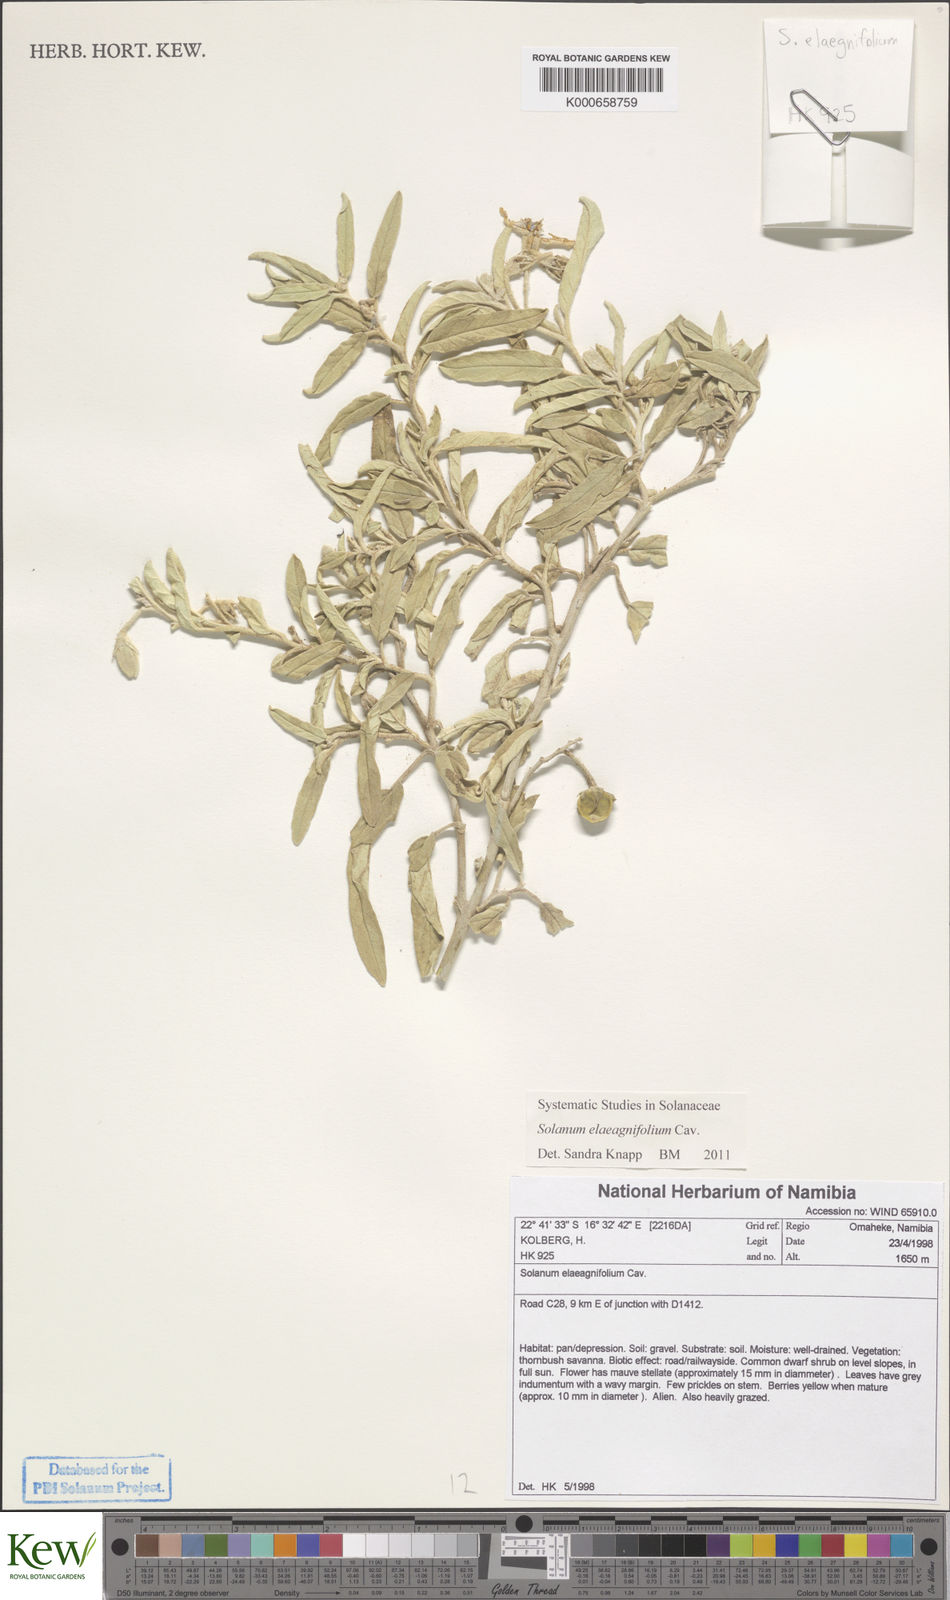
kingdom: Plantae
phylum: Tracheophyta
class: Magnoliopsida
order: Solanales
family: Solanaceae
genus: Solanum
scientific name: Solanum elaeagnifolium
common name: Silverleaf nightshade
